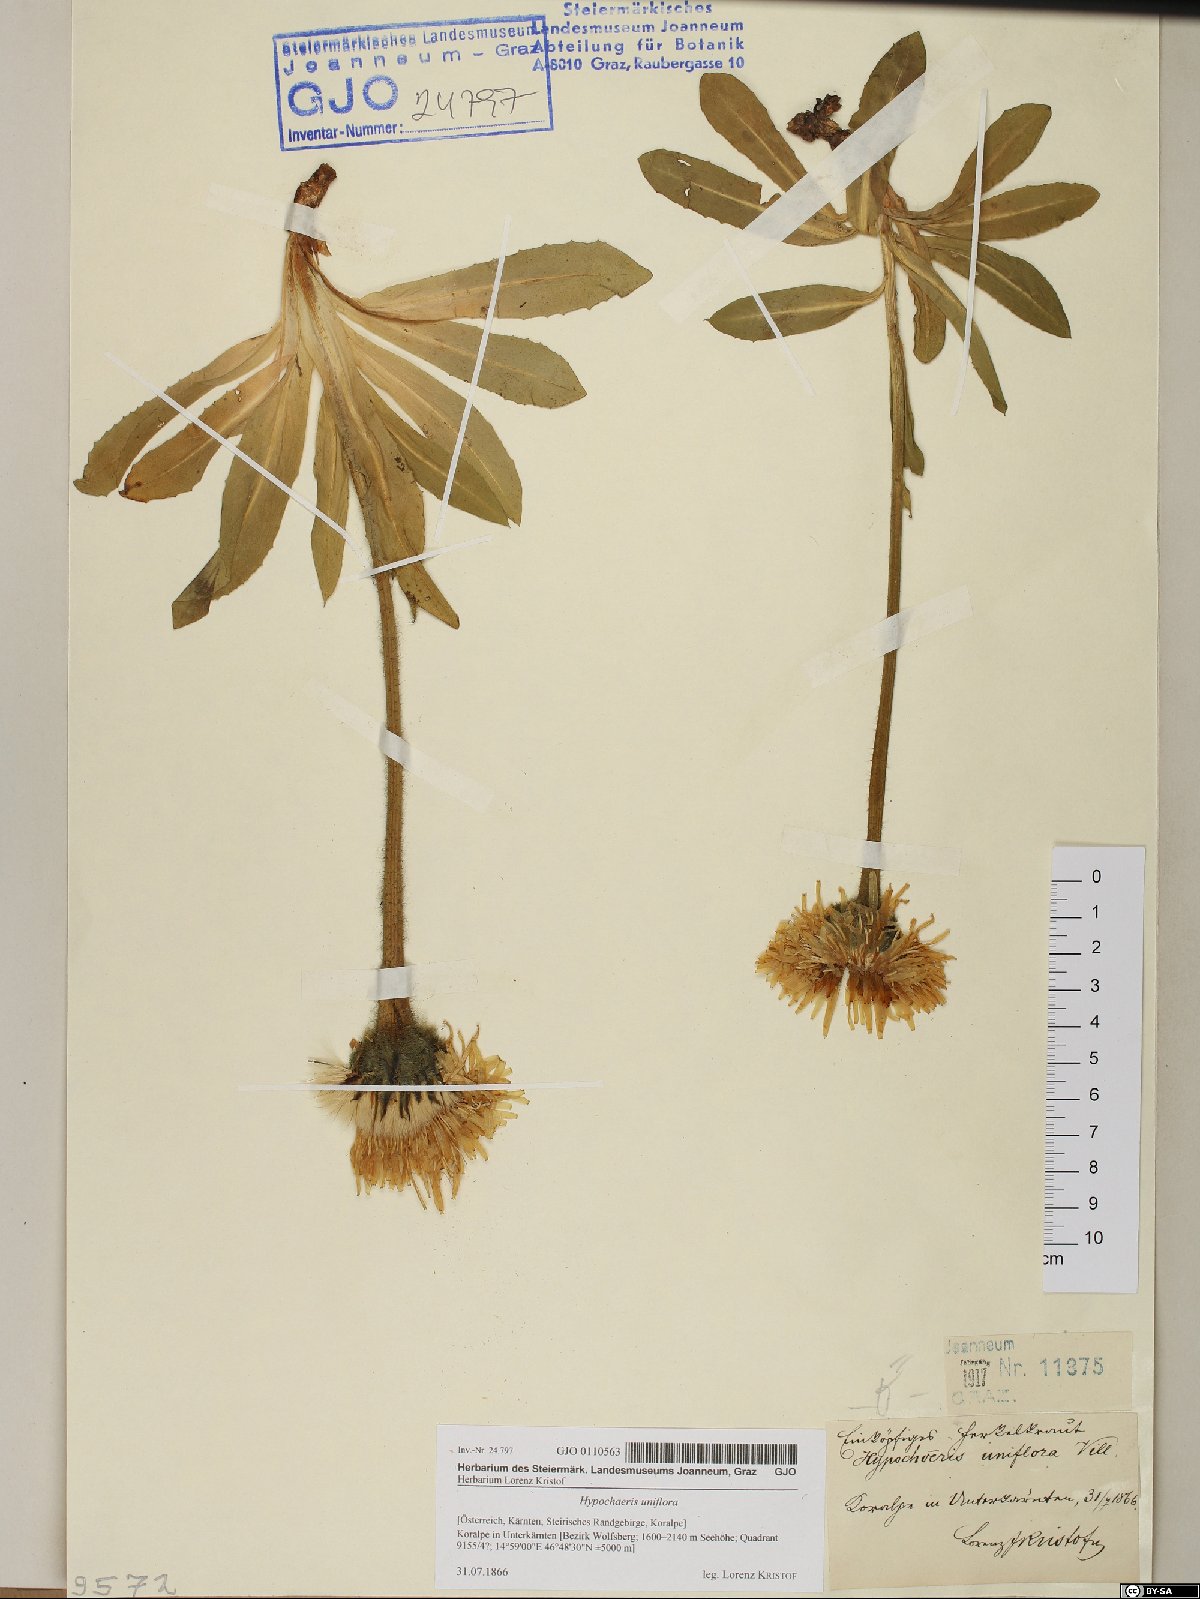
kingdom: Plantae
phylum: Tracheophyta
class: Magnoliopsida
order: Asterales
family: Asteraceae
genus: Trommsdorffia
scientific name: Trommsdorffia uniflora
